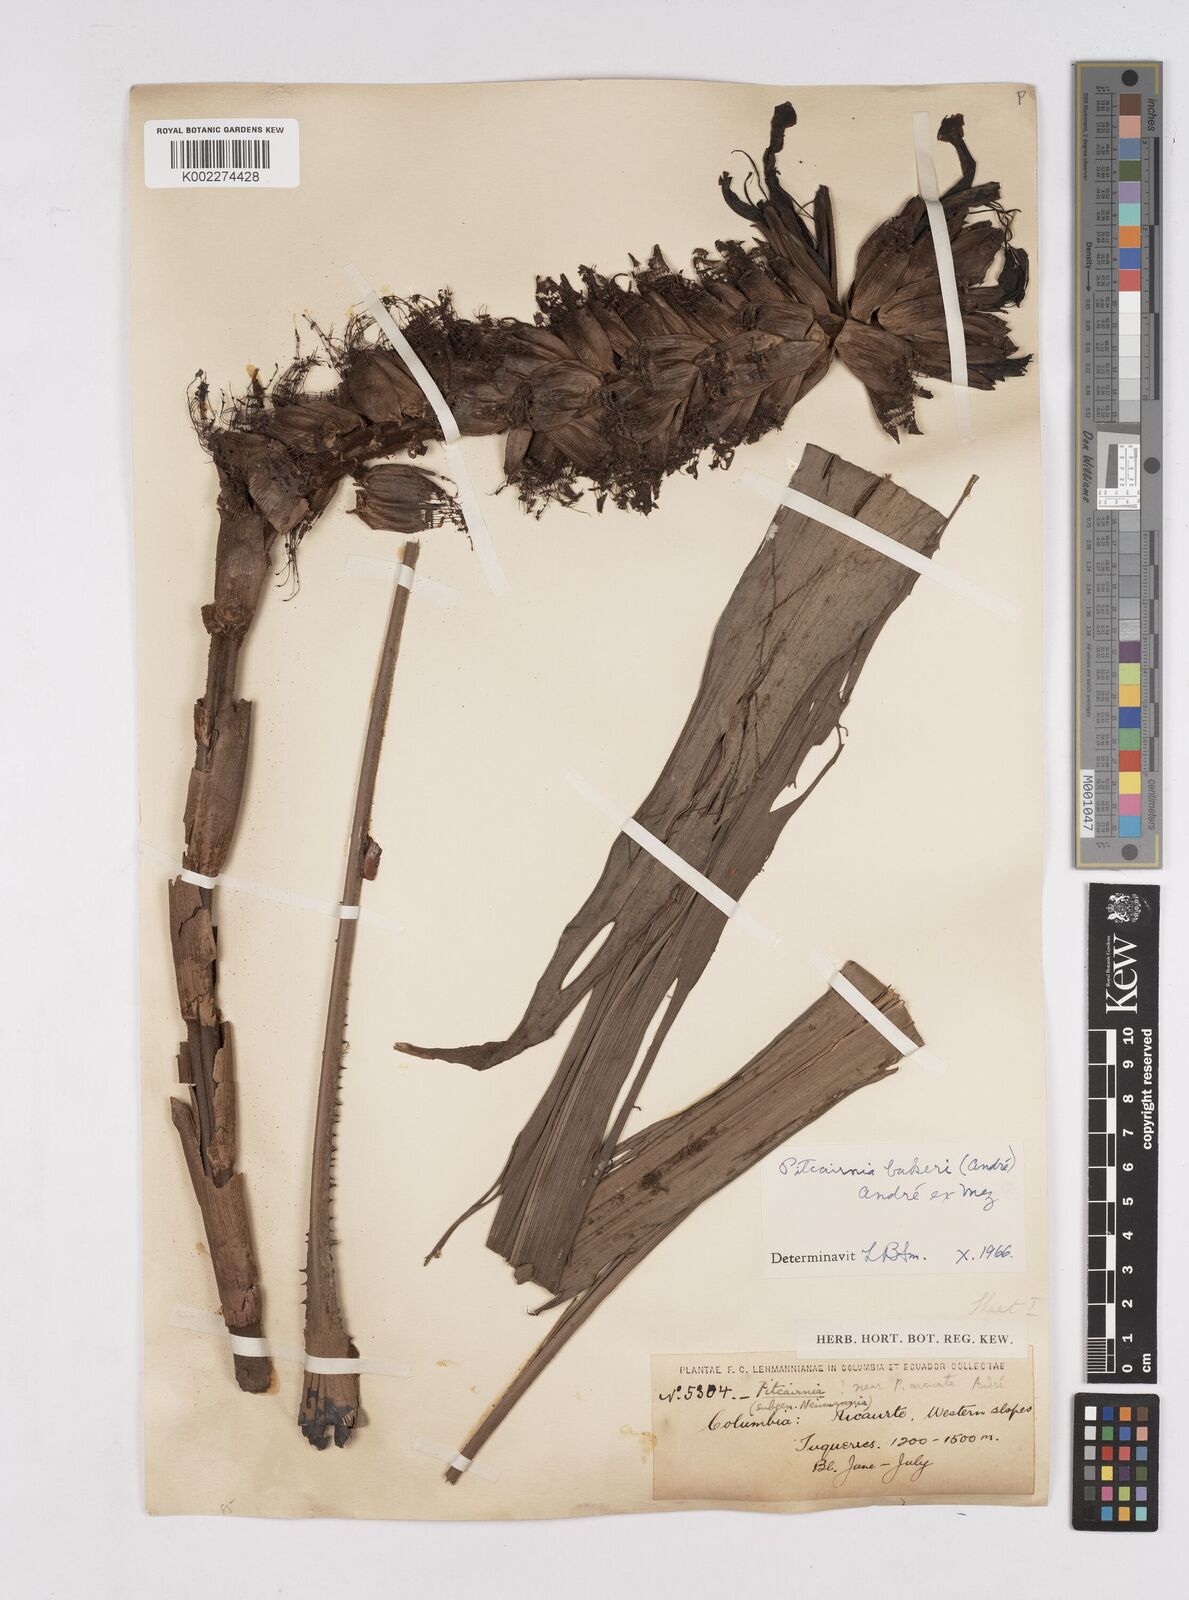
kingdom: Plantae
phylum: Tracheophyta
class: Liliopsida
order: Poales
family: Bromeliaceae
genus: Pitcairnia
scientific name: Pitcairnia bakeri
